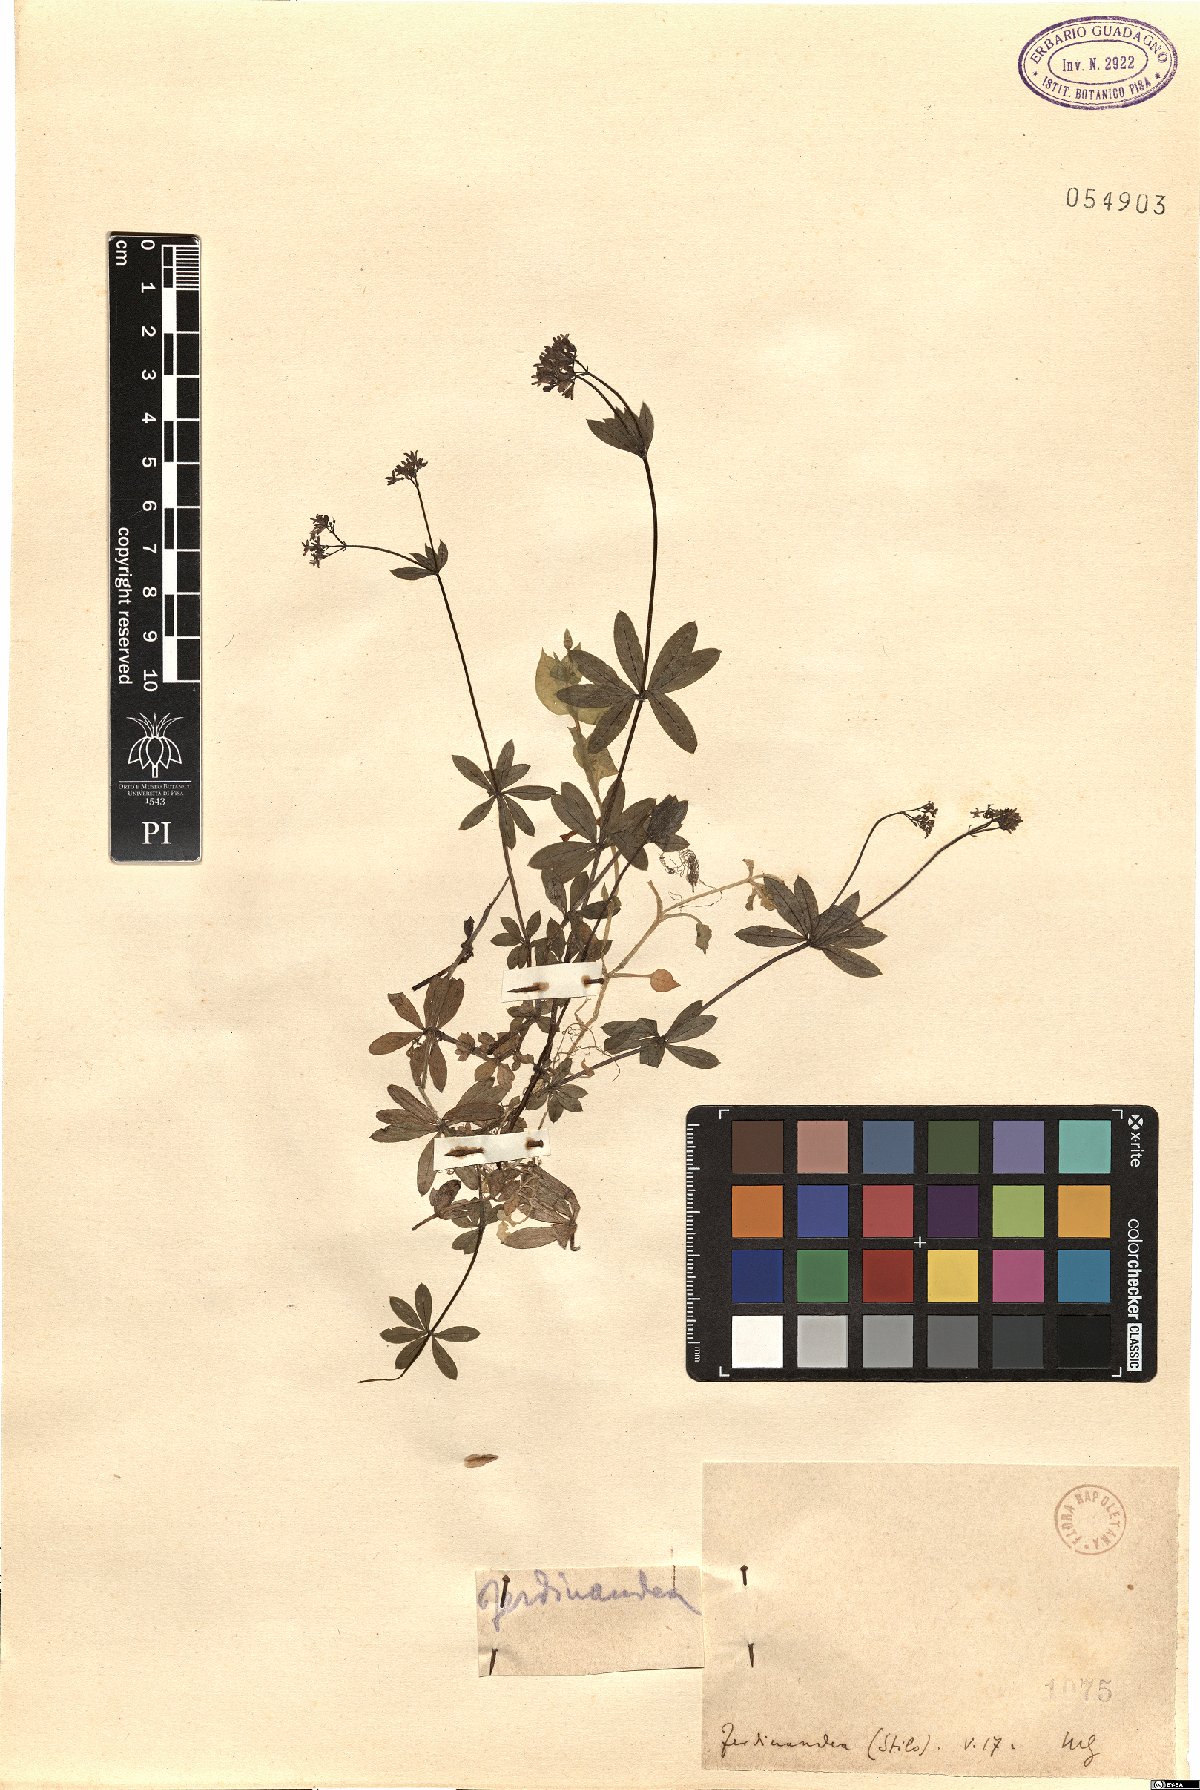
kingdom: Plantae
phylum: Tracheophyta
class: Magnoliopsida
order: Gentianales
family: Rubiaceae
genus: Asperula
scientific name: Asperula
